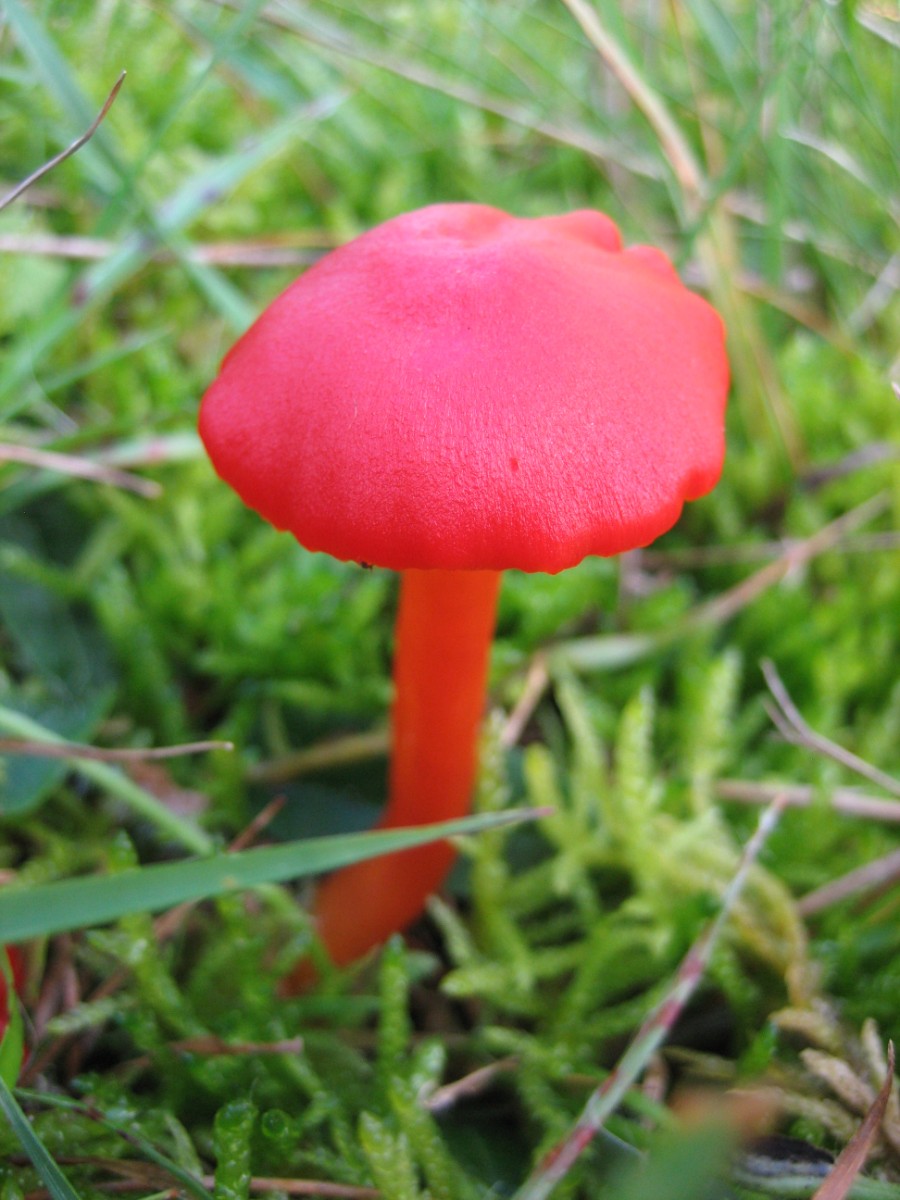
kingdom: Fungi
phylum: Basidiomycota
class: Agaricomycetes
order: Agaricales
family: Hygrophoraceae
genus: Hygrocybe
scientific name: Hygrocybe coccinea
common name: cinnober-vokshat
